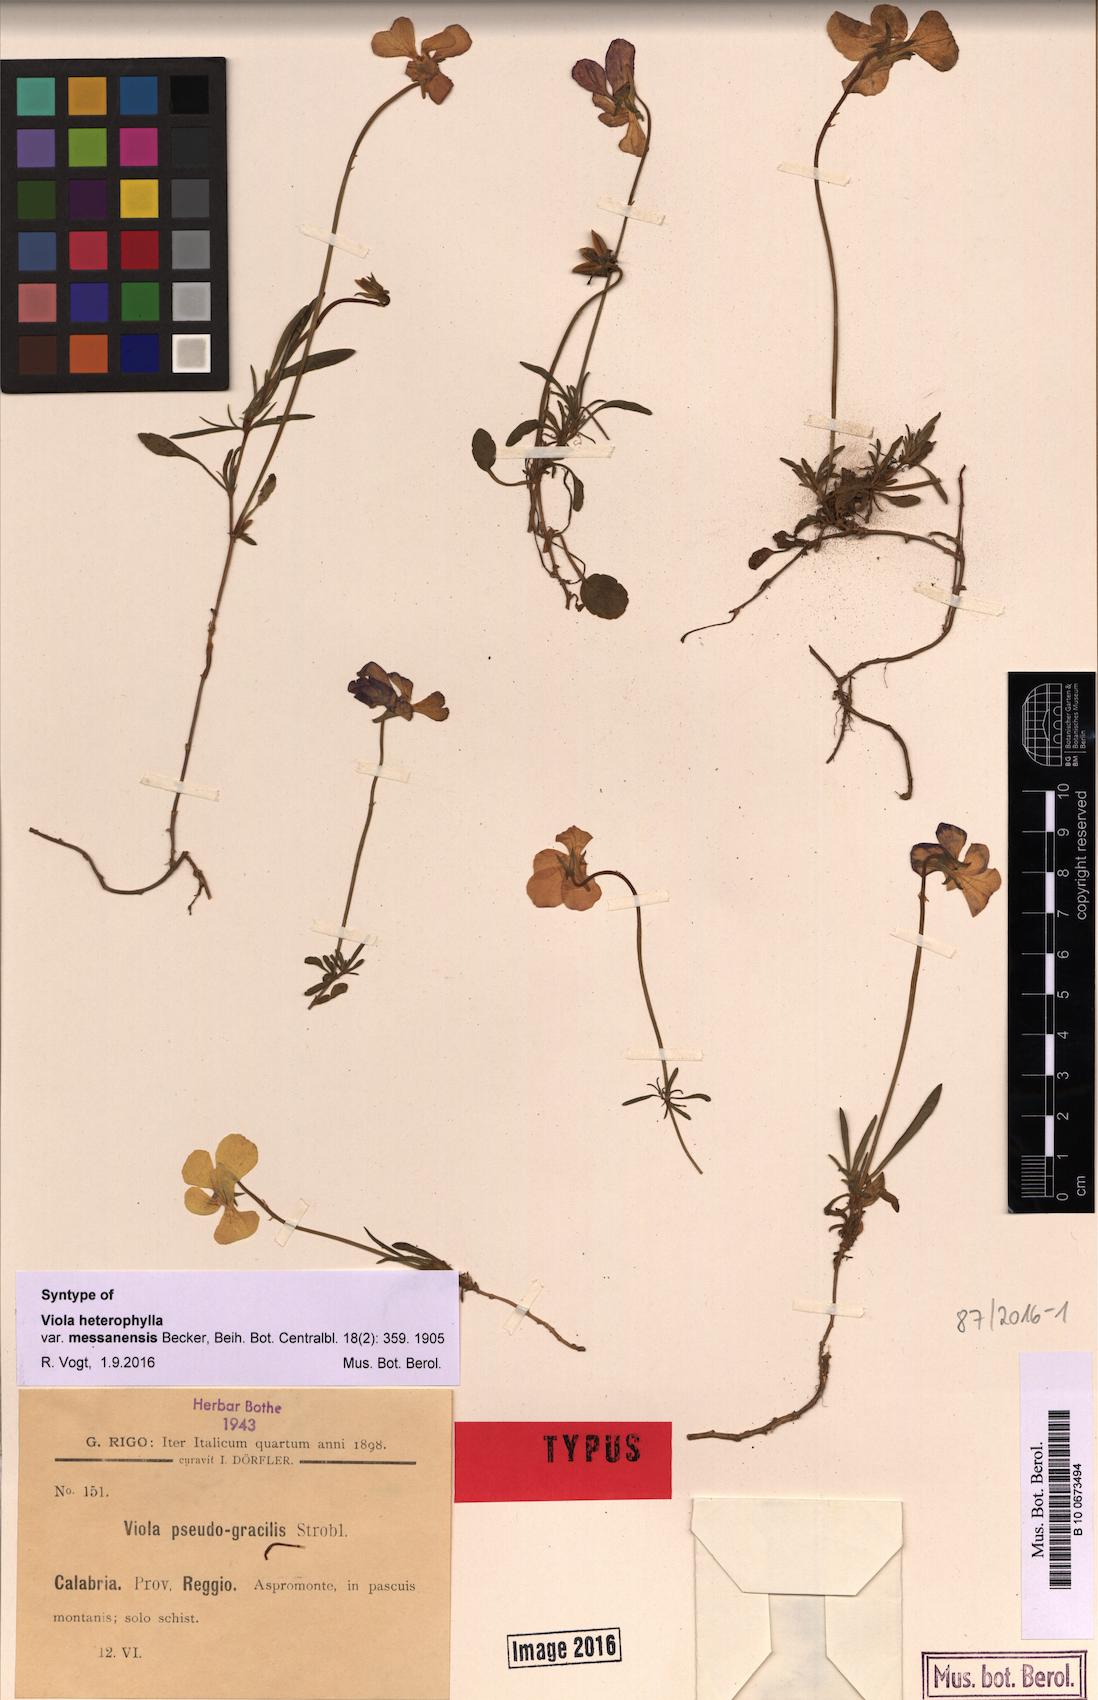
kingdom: Plantae
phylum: Tracheophyta
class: Magnoliopsida
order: Malpighiales
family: Violaceae
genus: Viola
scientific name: Viola aethnensis
